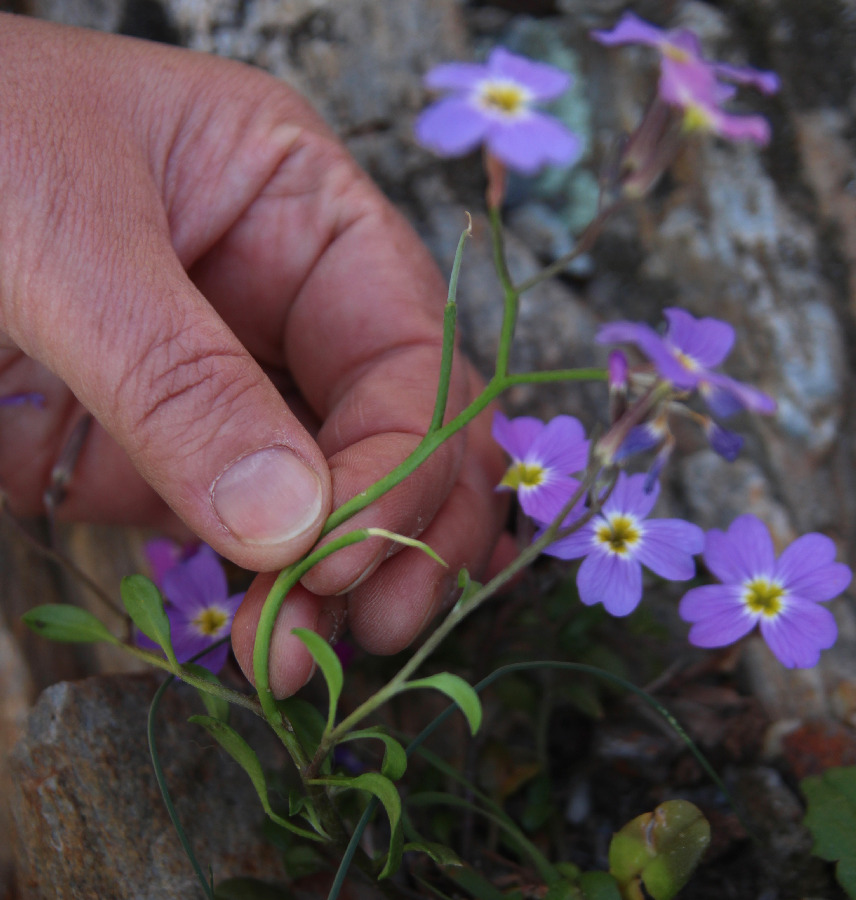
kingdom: Plantae
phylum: Tracheophyta
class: Magnoliopsida
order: Brassicales
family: Brassicaceae
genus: Malcolmia
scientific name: Malcolmia flexuosa
